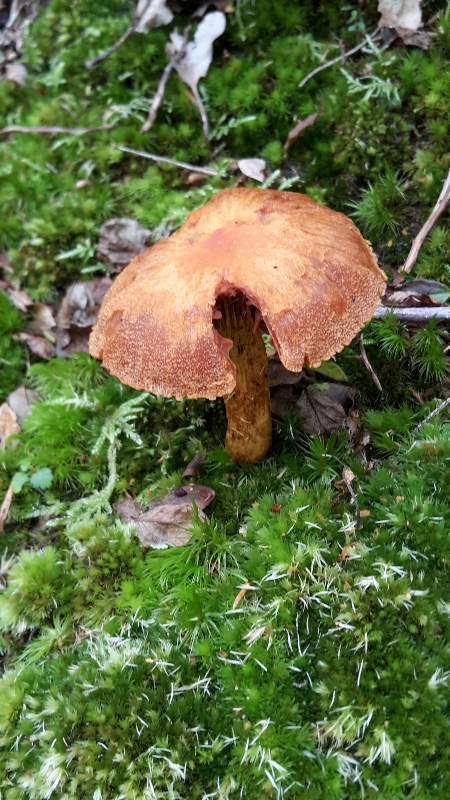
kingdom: Fungi
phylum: Basidiomycota
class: Agaricomycetes
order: Agaricales
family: Cortinariaceae
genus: Aureonarius
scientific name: Aureonarius limonius
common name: orangegul slørhat
